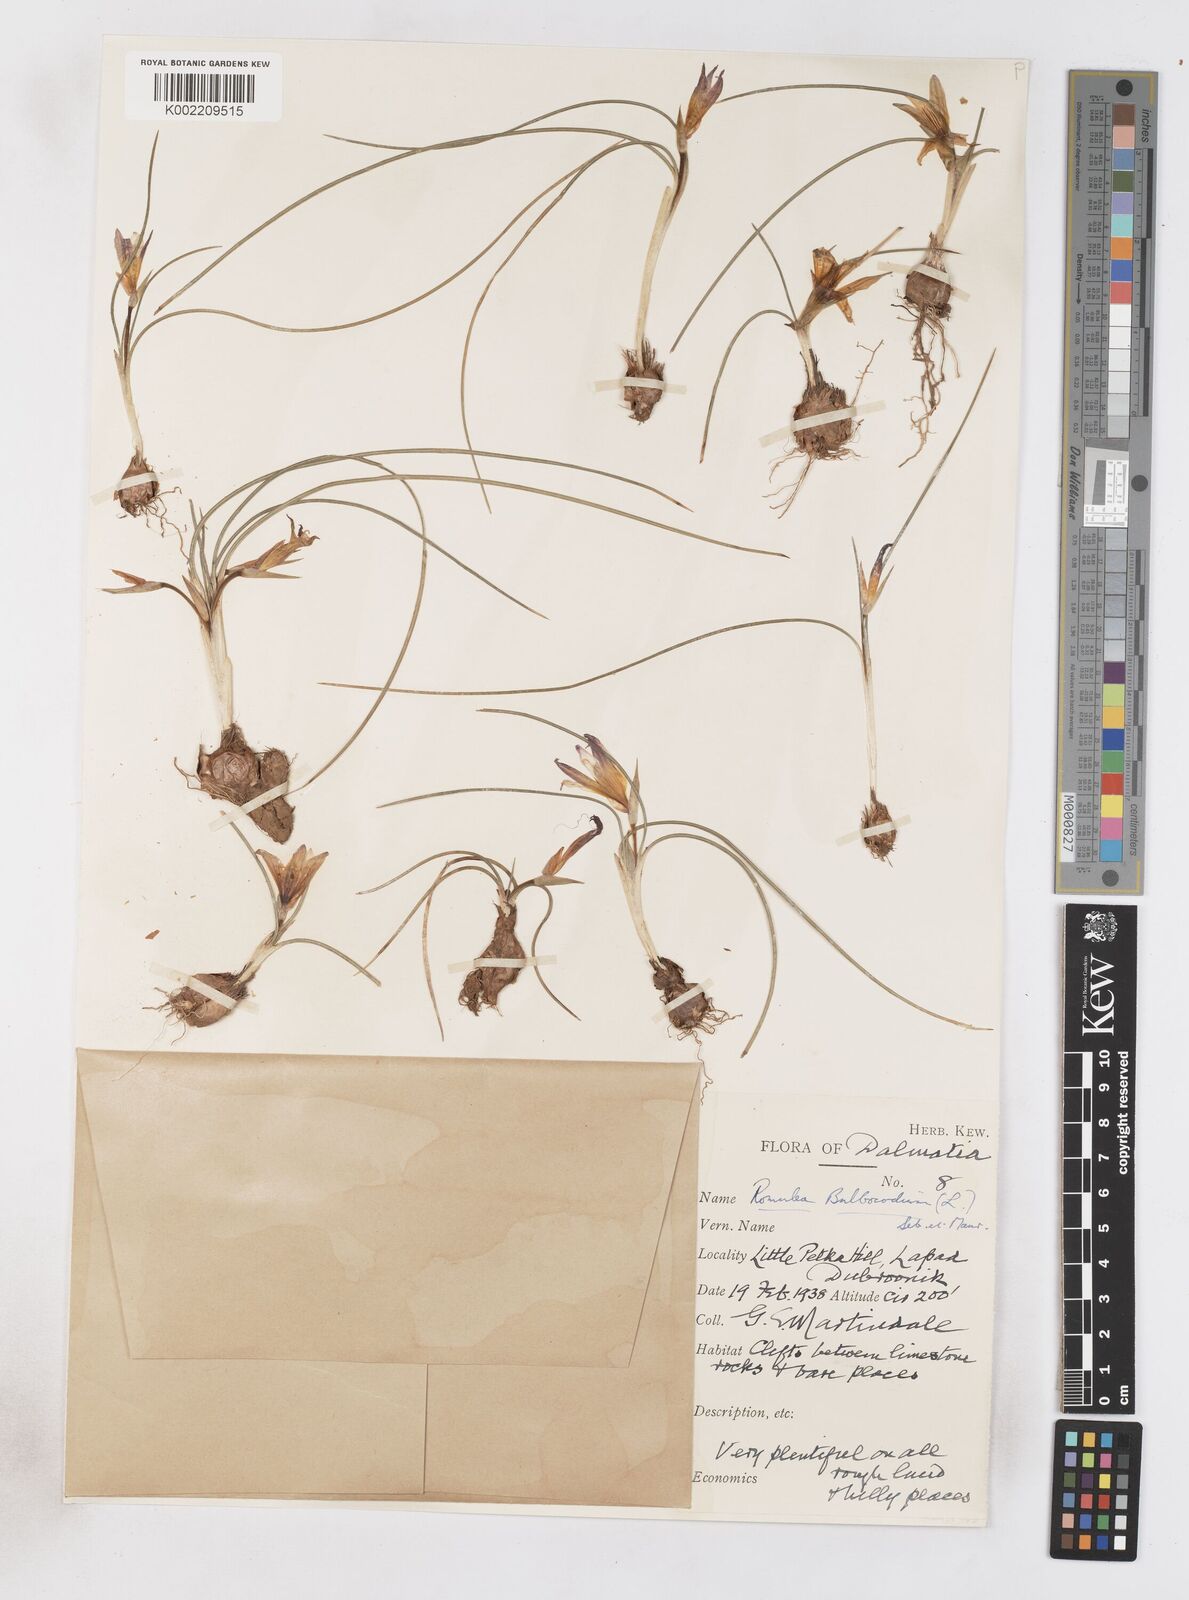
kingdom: Plantae
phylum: Tracheophyta
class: Liliopsida
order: Asparagales
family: Iridaceae
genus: Romulea
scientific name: Romulea bulbocodium
